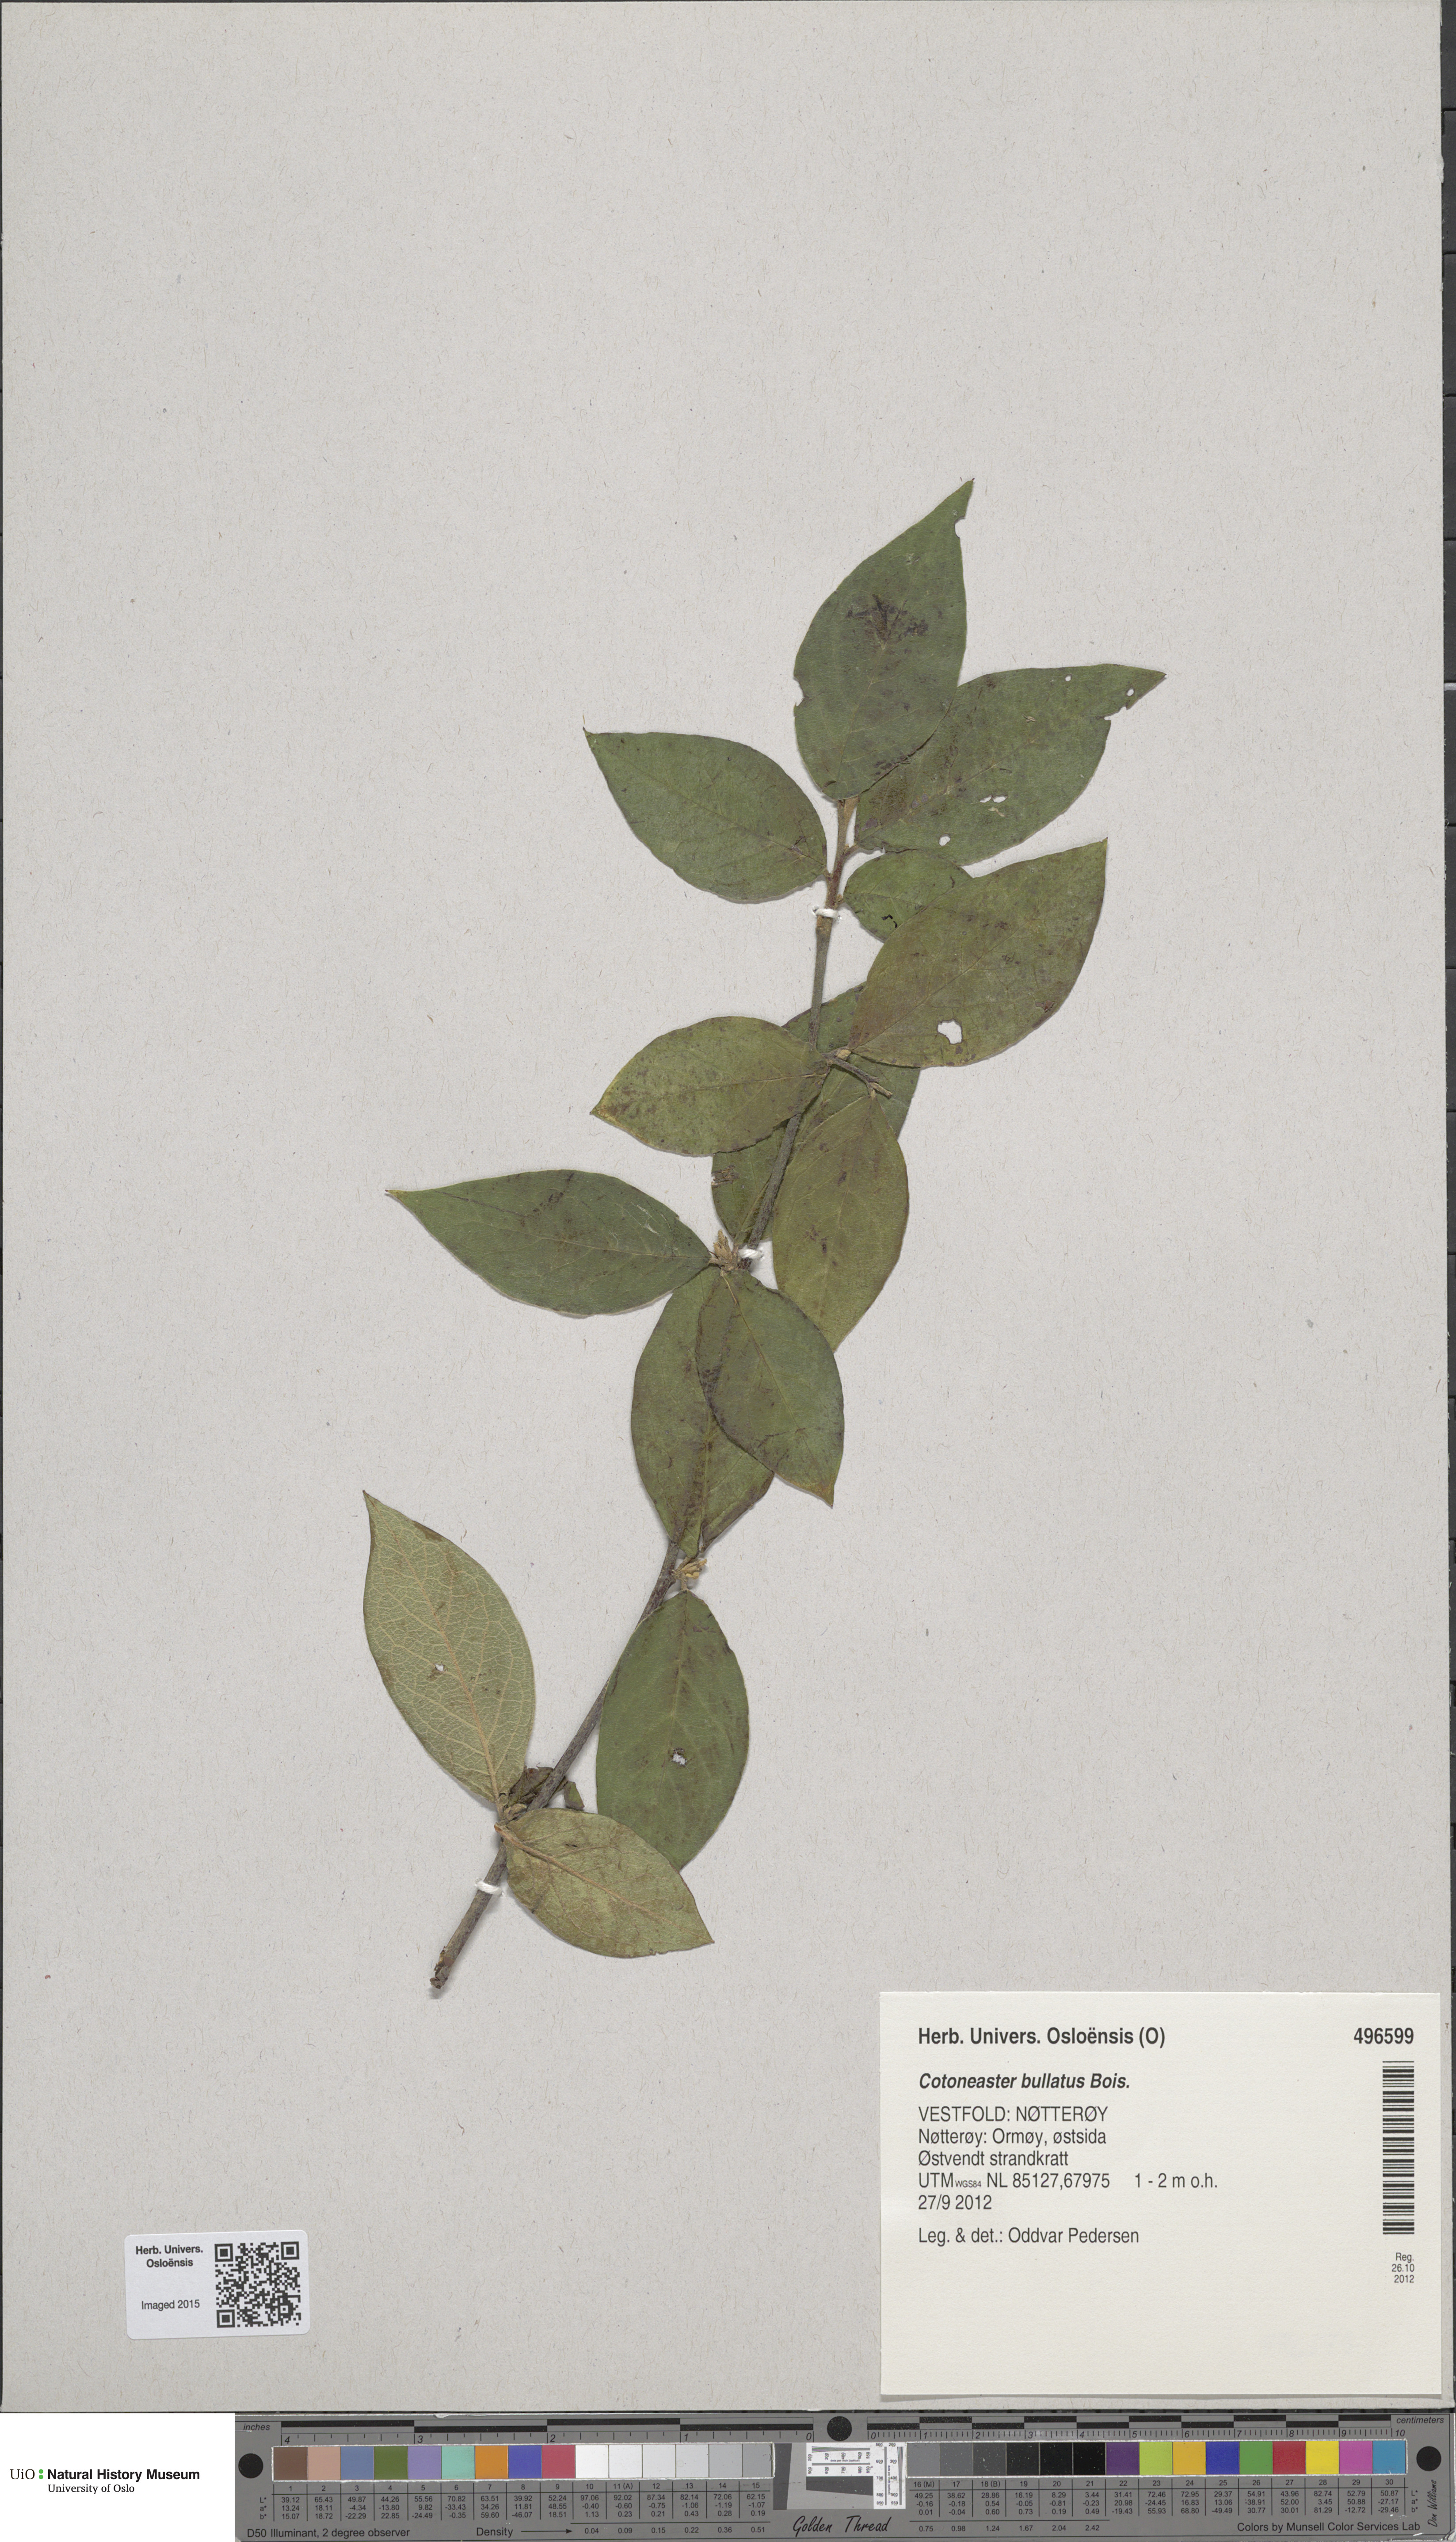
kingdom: Plantae
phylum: Tracheophyta
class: Magnoliopsida
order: Rosales
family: Rosaceae
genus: Cotoneaster
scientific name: Cotoneaster bullatus
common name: Hollyberry cotoneaster
